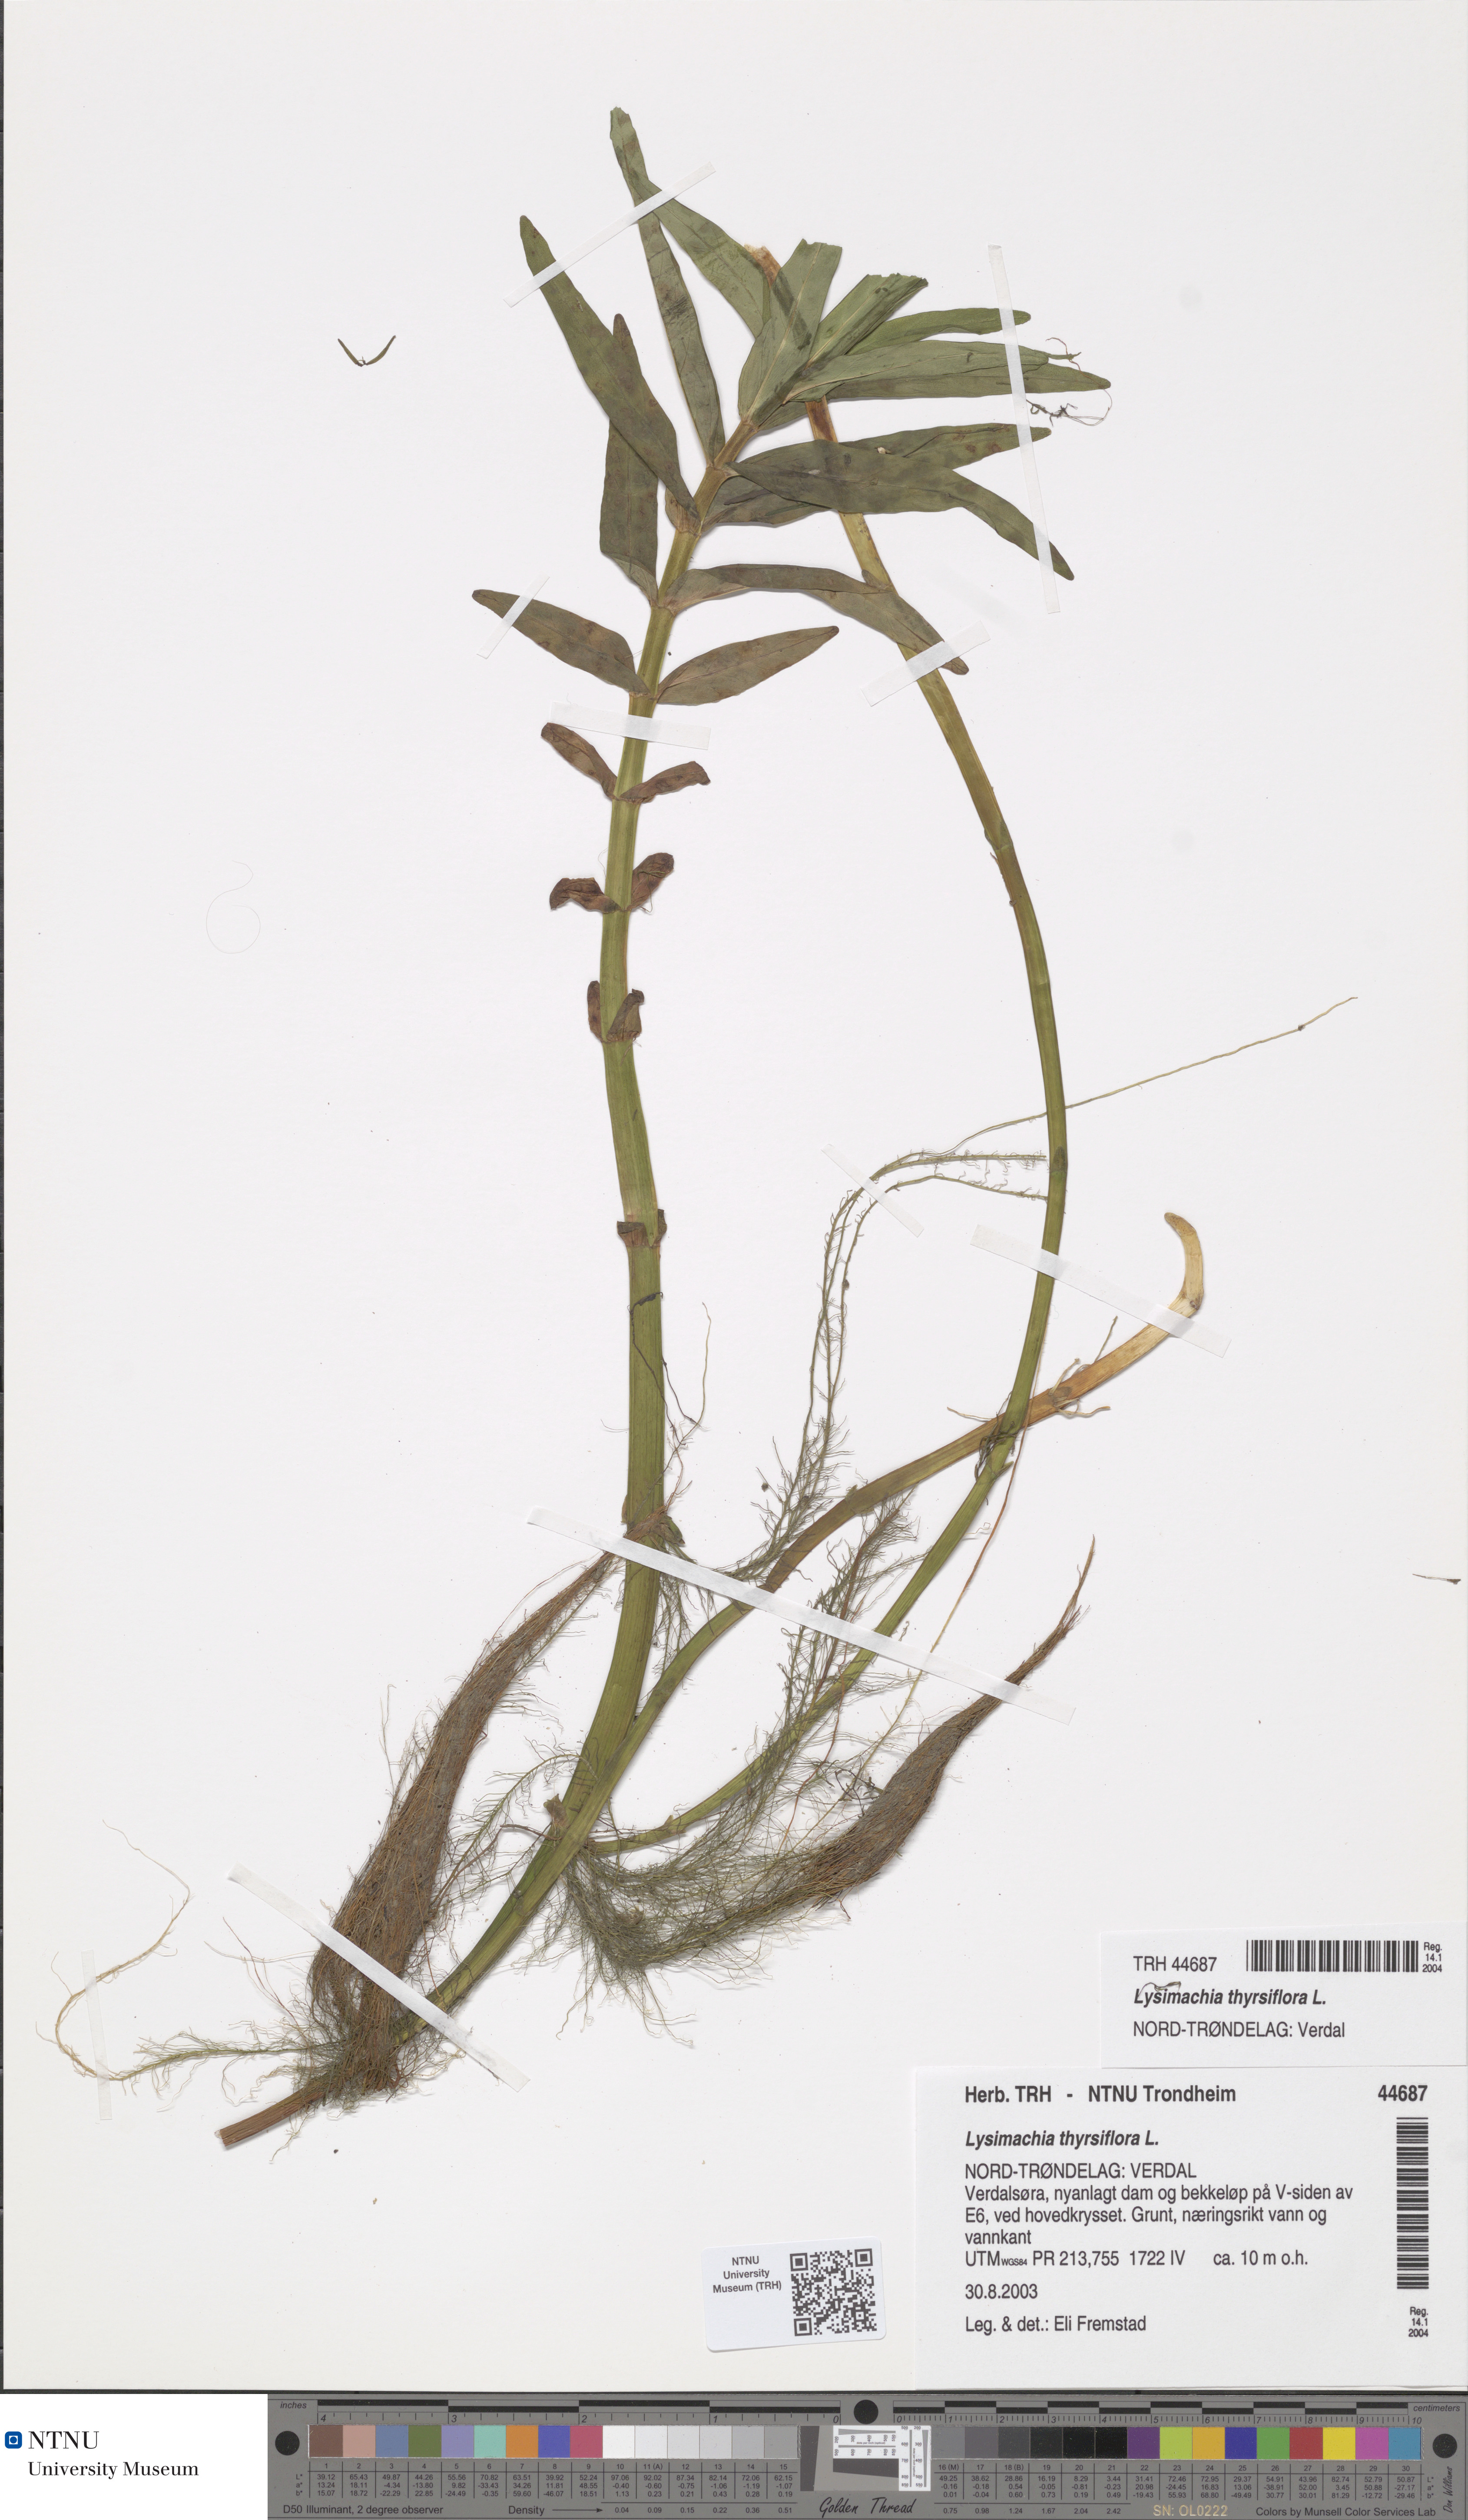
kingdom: Plantae
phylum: Tracheophyta
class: Magnoliopsida
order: Ericales
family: Primulaceae
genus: Lysimachia
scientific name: Lysimachia thyrsiflora
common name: Tufted loosestrife
